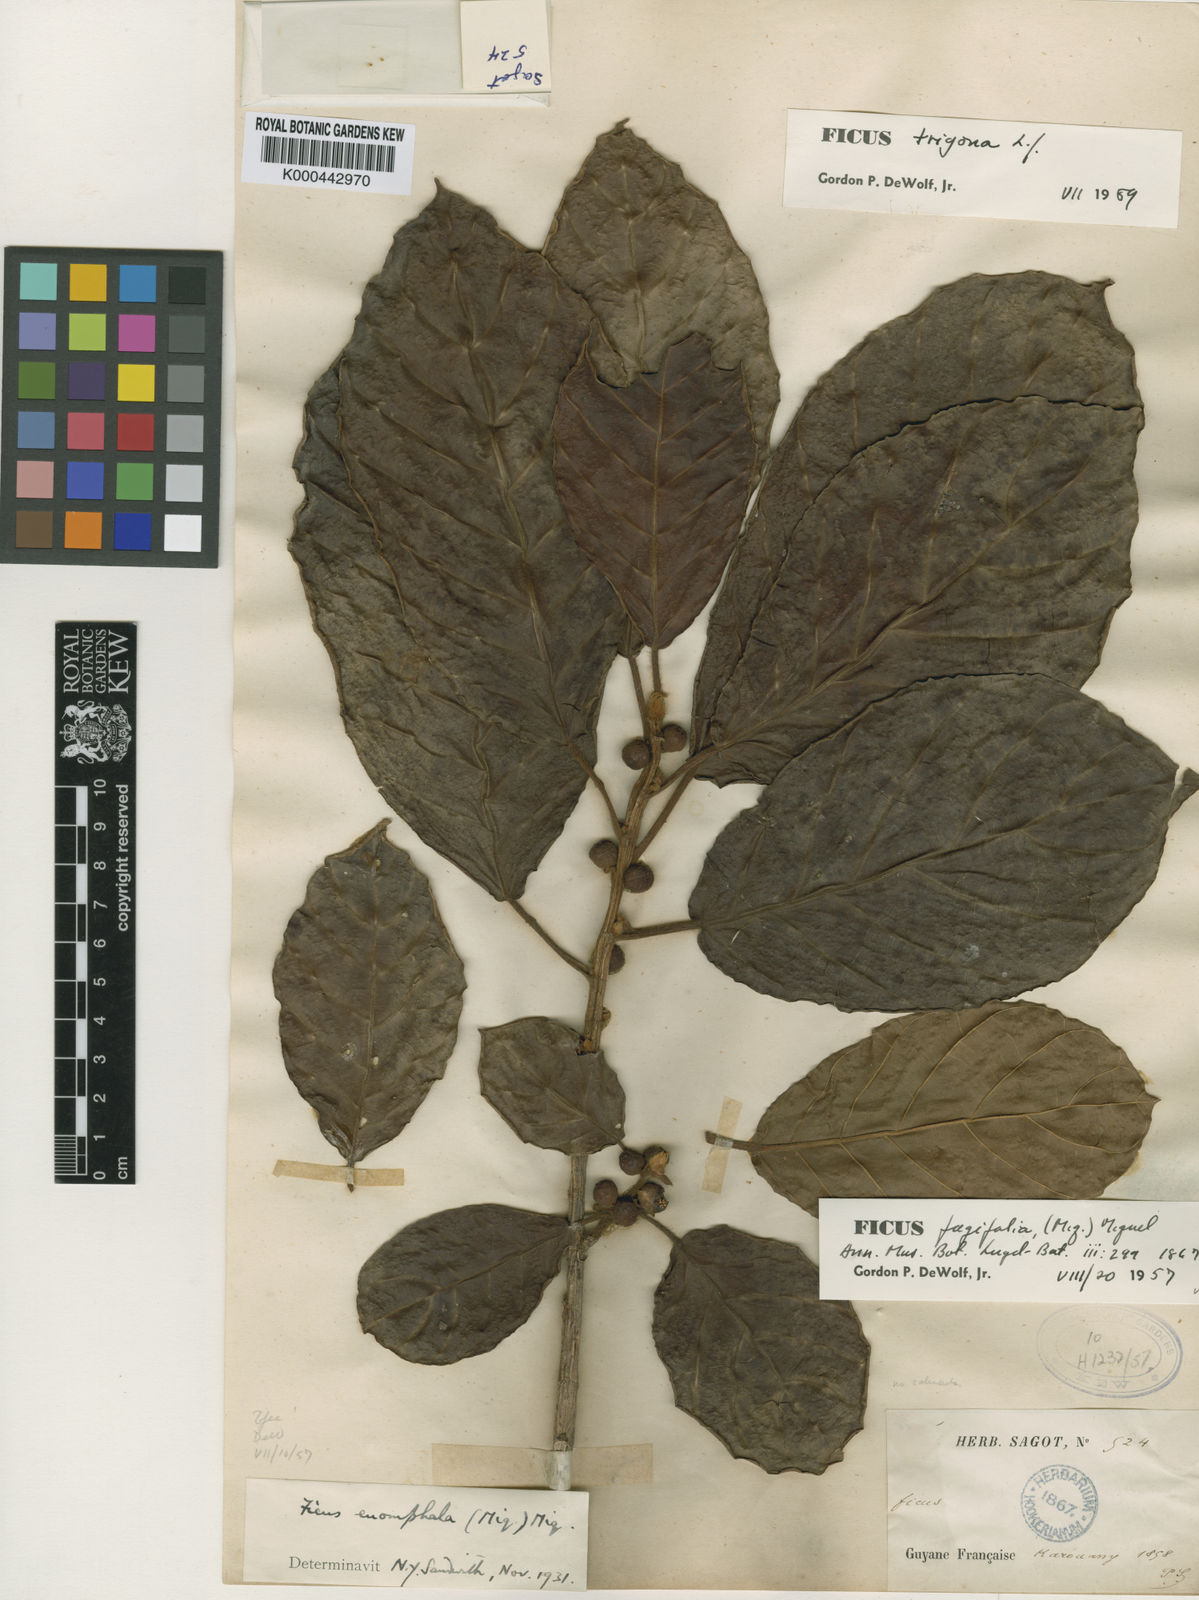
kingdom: Plantae
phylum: Tracheophyta
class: Magnoliopsida
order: Rosales
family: Moraceae
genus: Ficus
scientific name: Ficus trigona
